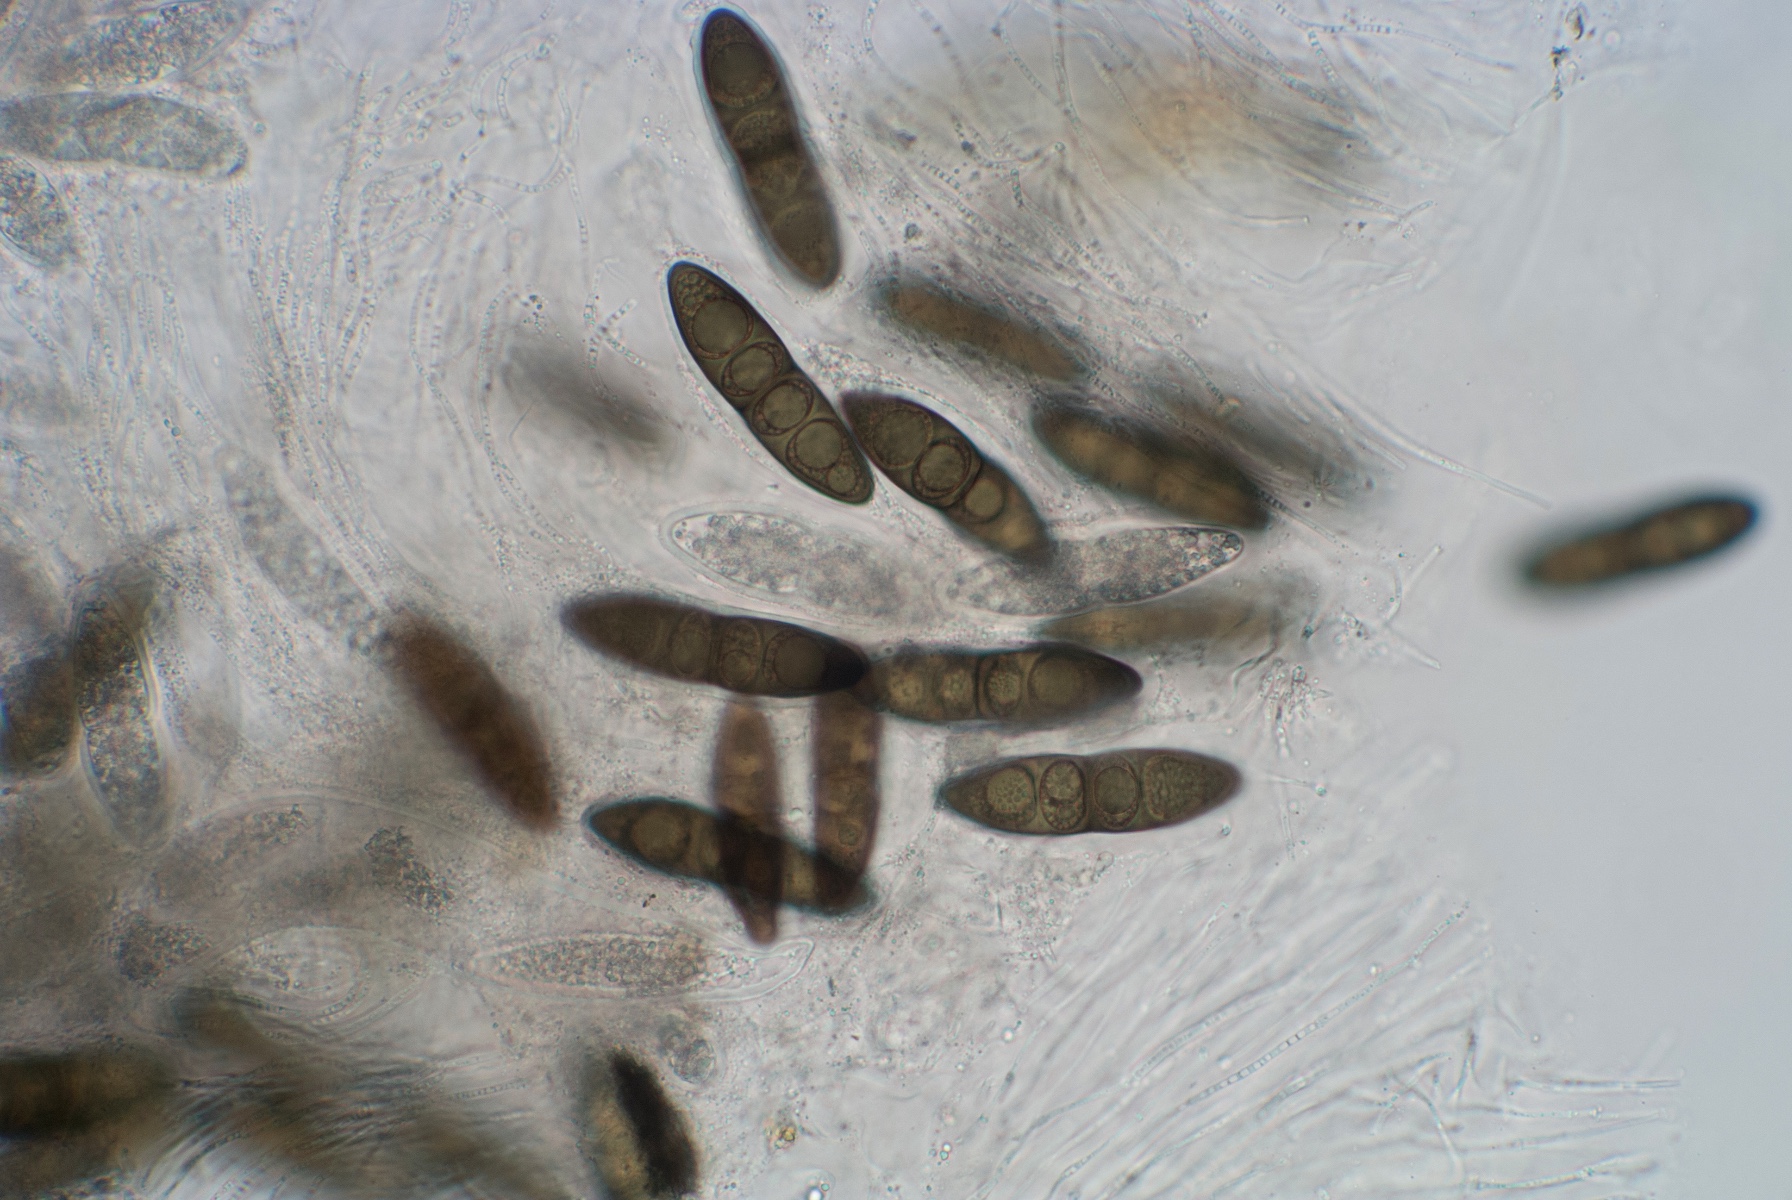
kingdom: Fungi
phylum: Ascomycota
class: Dothideomycetes
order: Pleosporales
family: Massariaceae
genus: Massaria
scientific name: Massaria vomitoria
